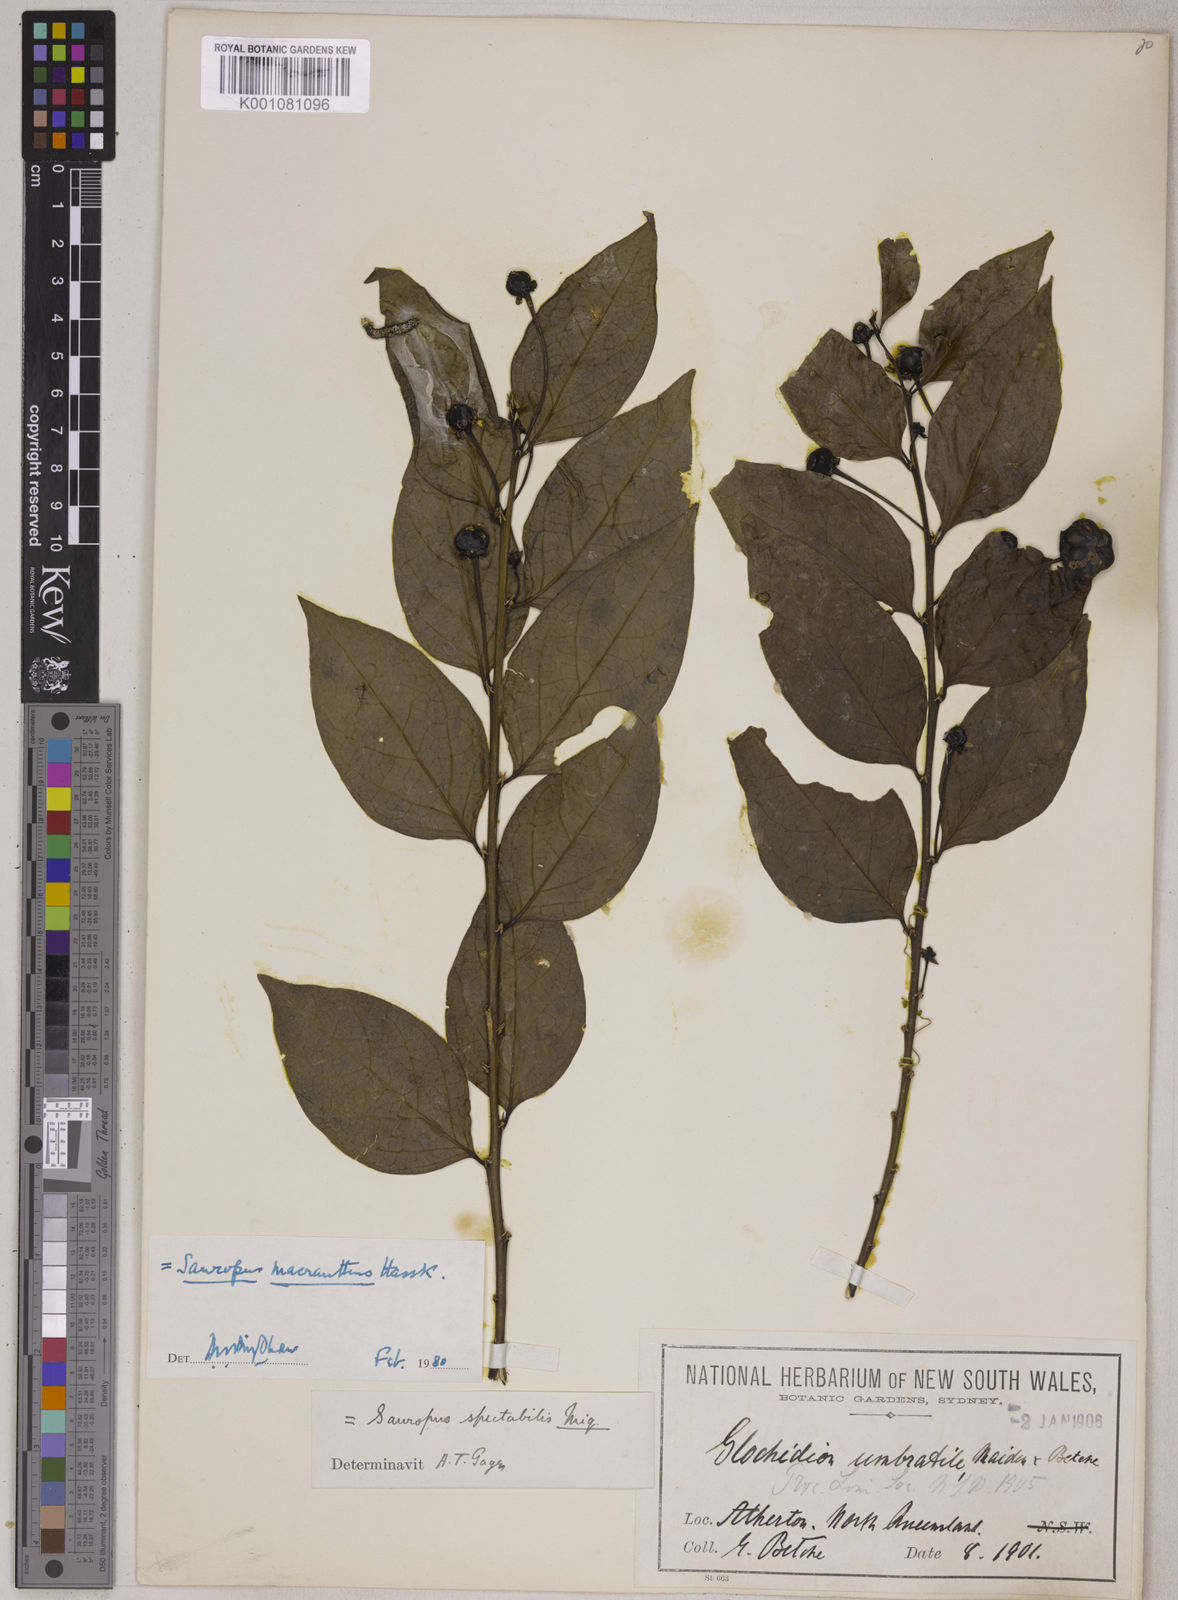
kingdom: Plantae
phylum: Tracheophyta
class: Magnoliopsida
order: Malpighiales
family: Phyllanthaceae
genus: Breynia
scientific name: Breynia macrantha
